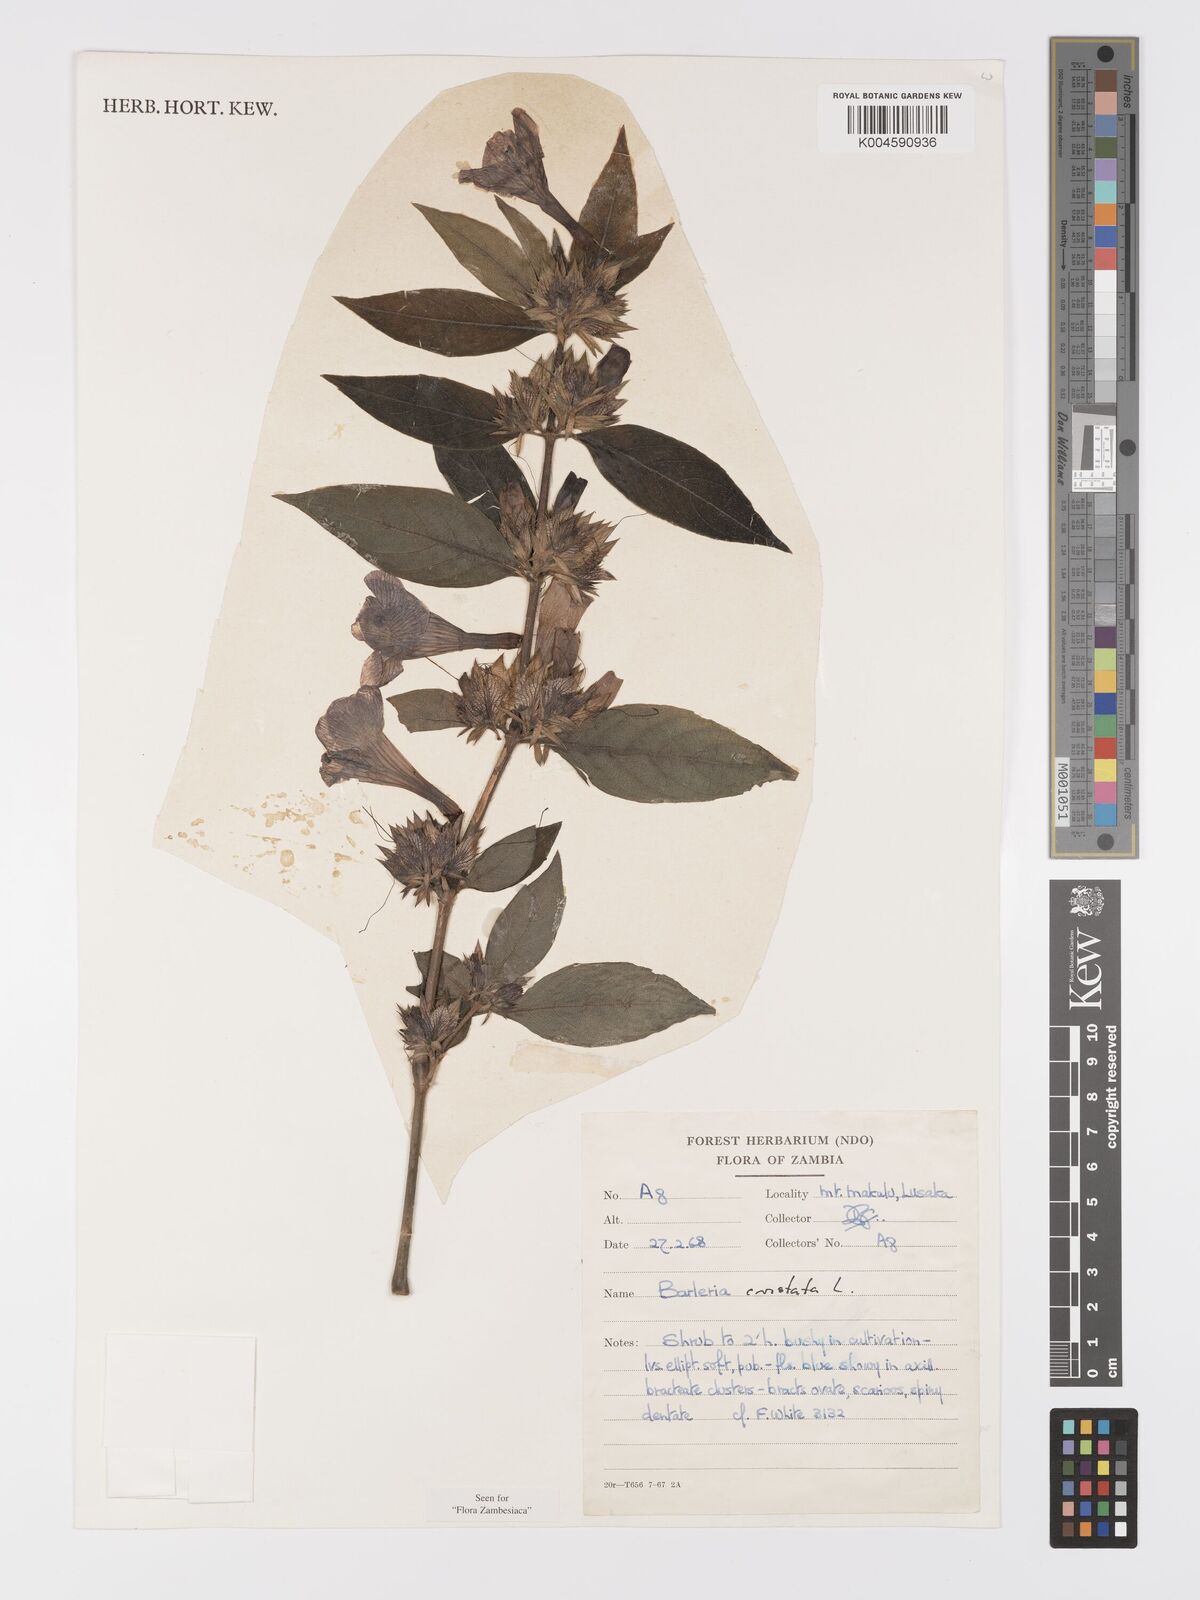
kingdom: Plantae
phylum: Tracheophyta
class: Magnoliopsida
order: Lamiales
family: Acanthaceae
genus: Barleria
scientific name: Barleria cristata
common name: Crested philippine violet
